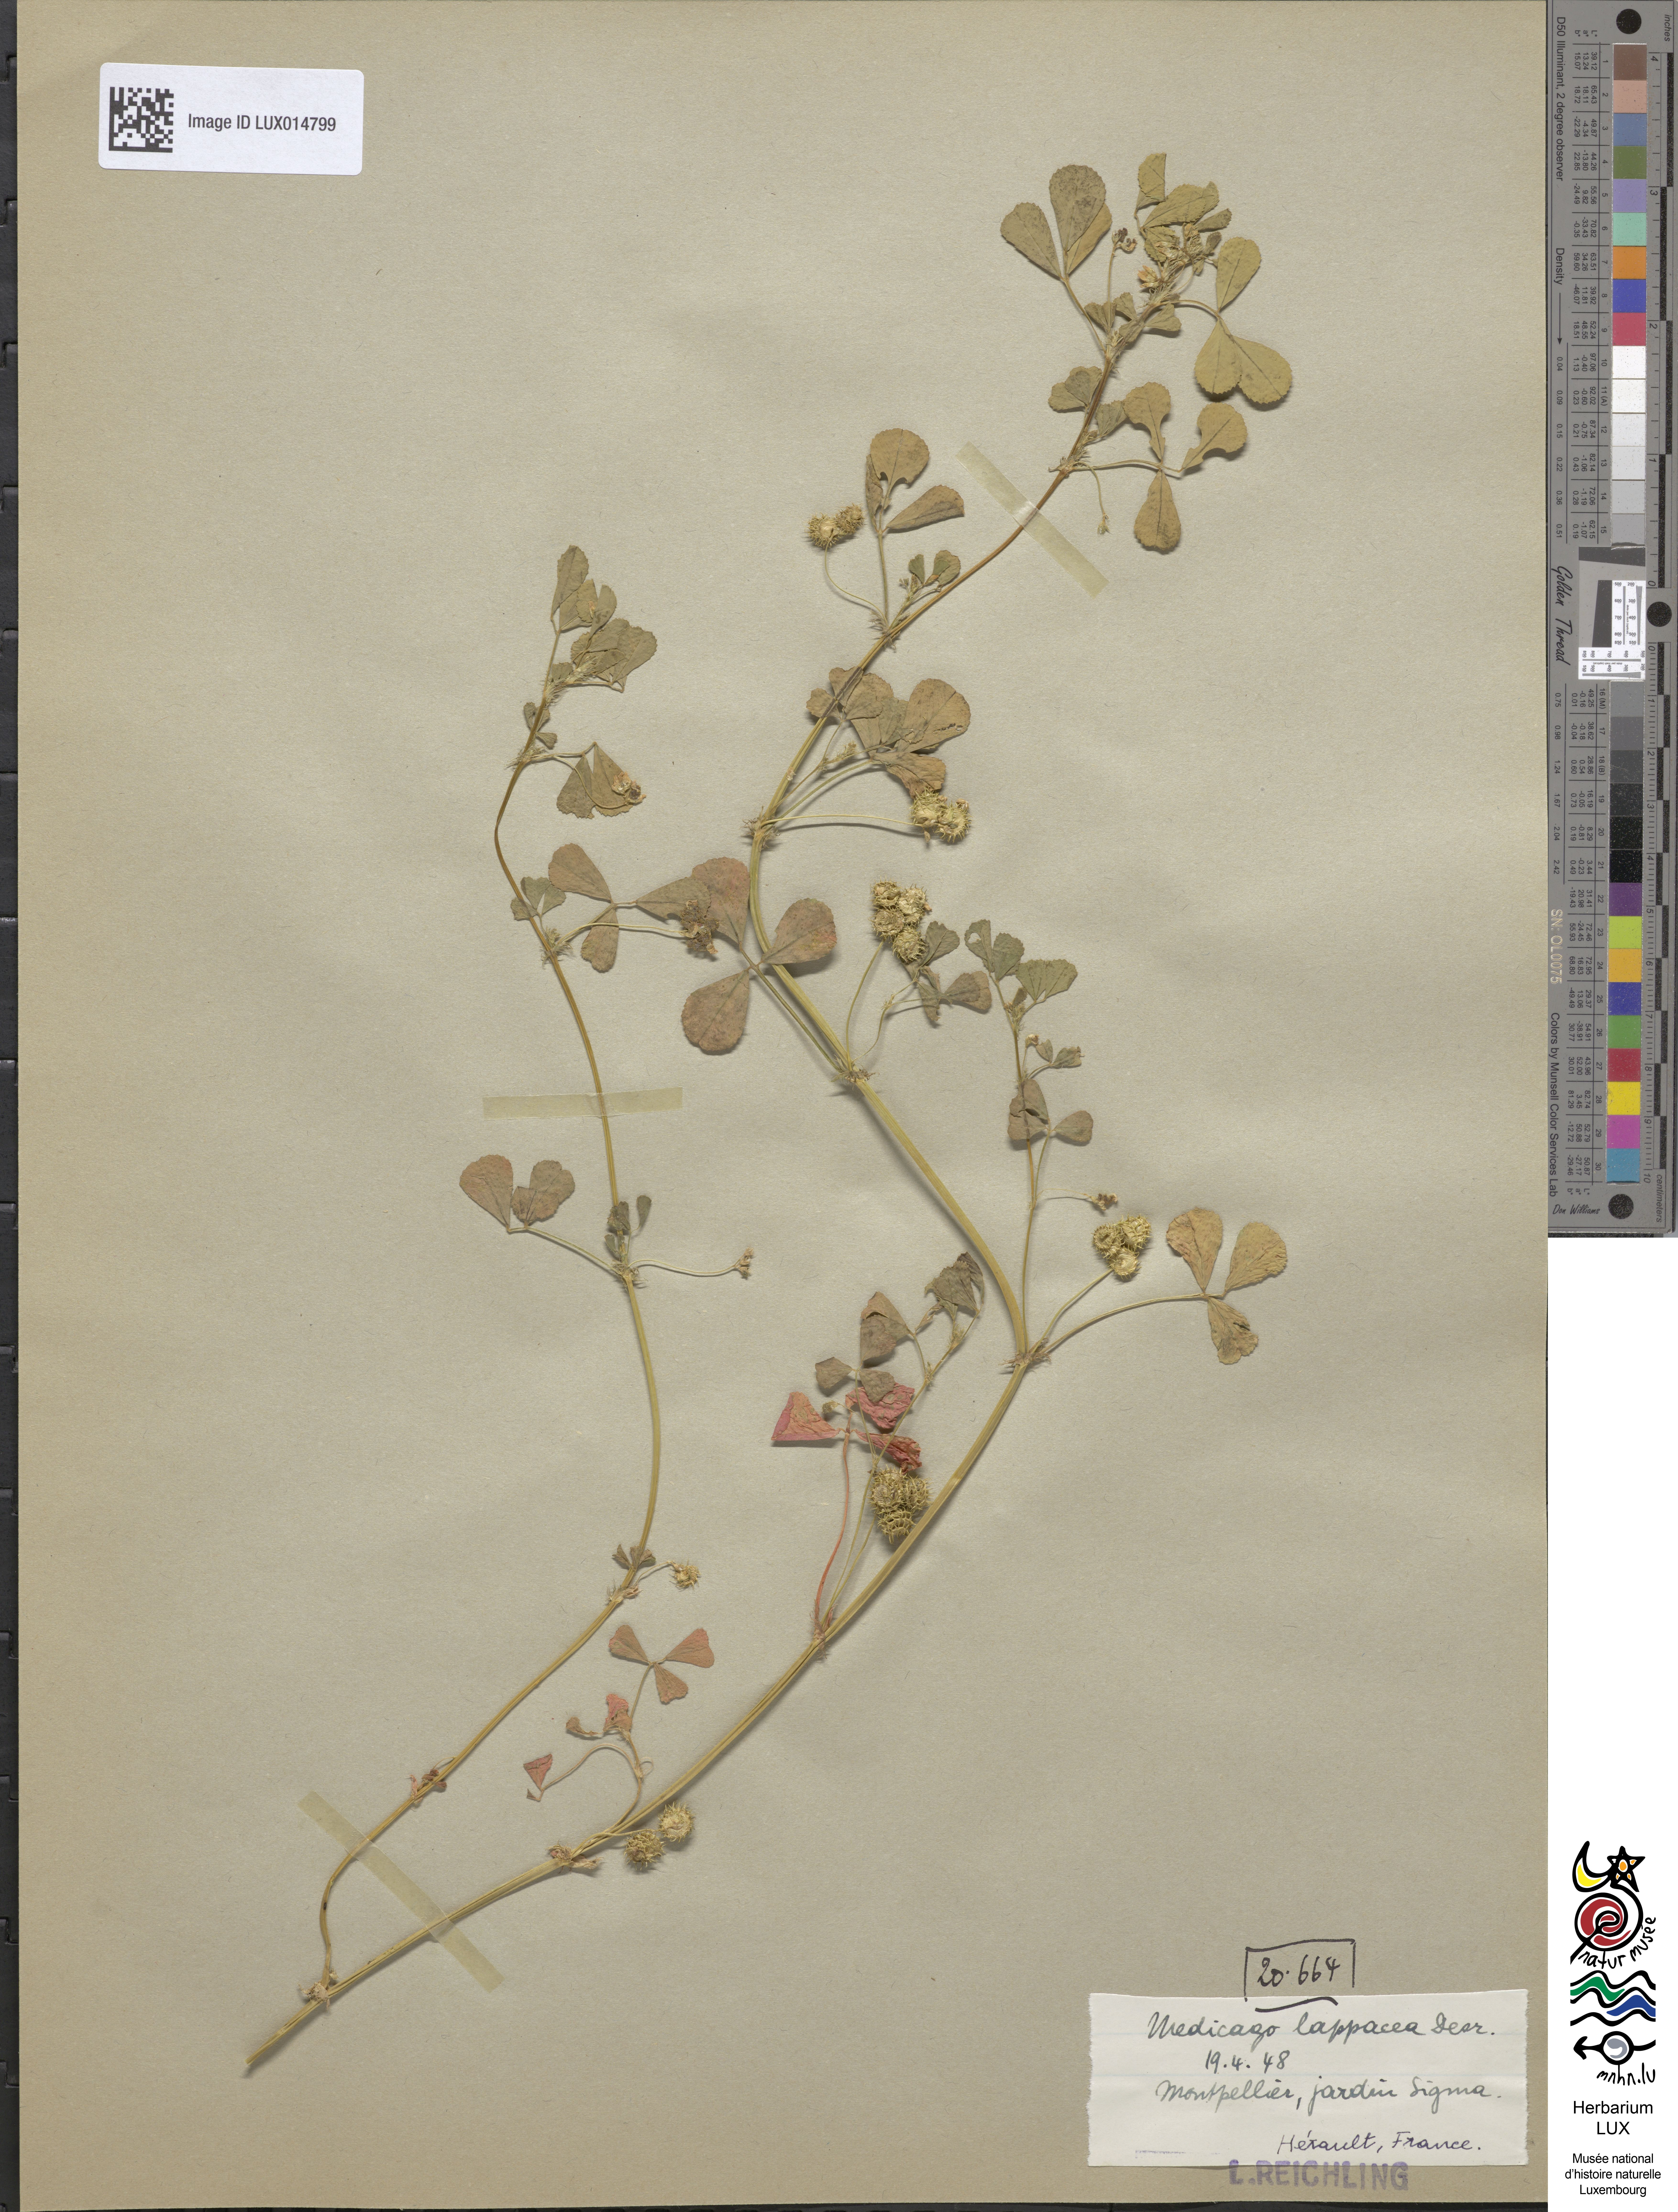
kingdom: Plantae
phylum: Tracheophyta
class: Magnoliopsida
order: Fabales
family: Fabaceae
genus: Medicago
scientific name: Medicago polymorpha
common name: Burclover
